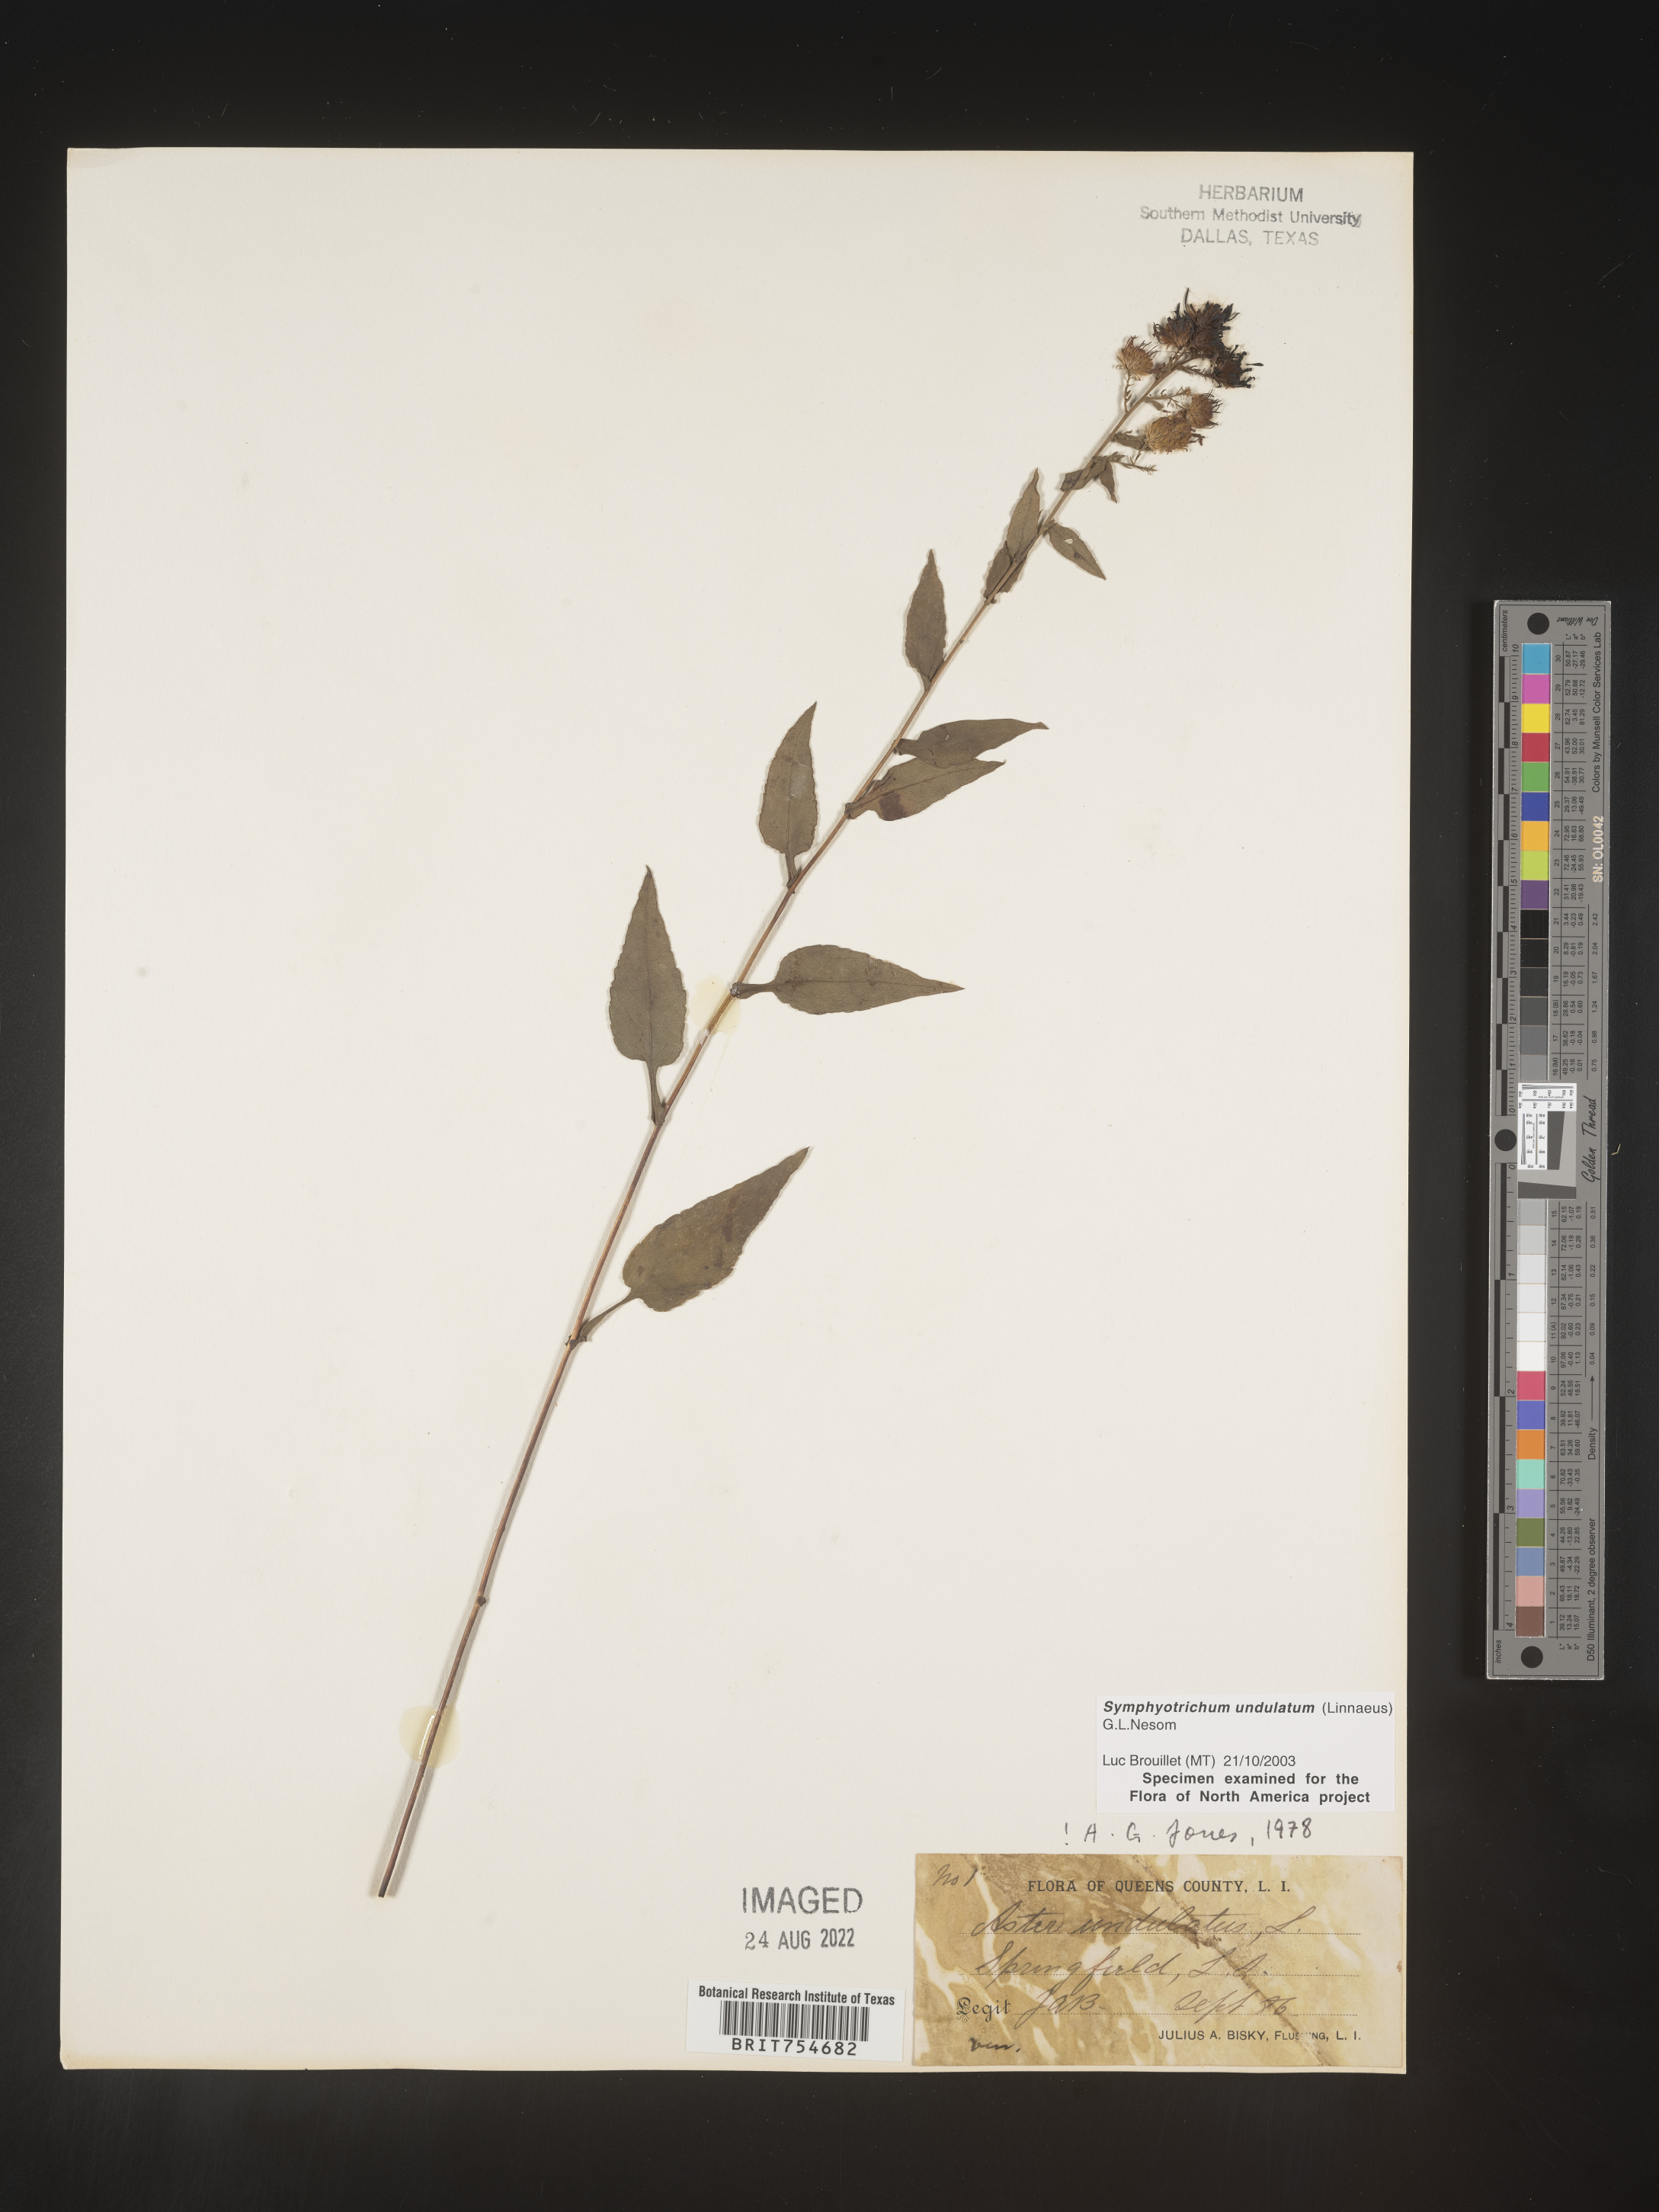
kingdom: Plantae
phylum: Tracheophyta
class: Magnoliopsida
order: Asterales
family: Asteraceae
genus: Symphyotrichum
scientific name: Symphyotrichum undulatum
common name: Clasping heart-leaf aster
